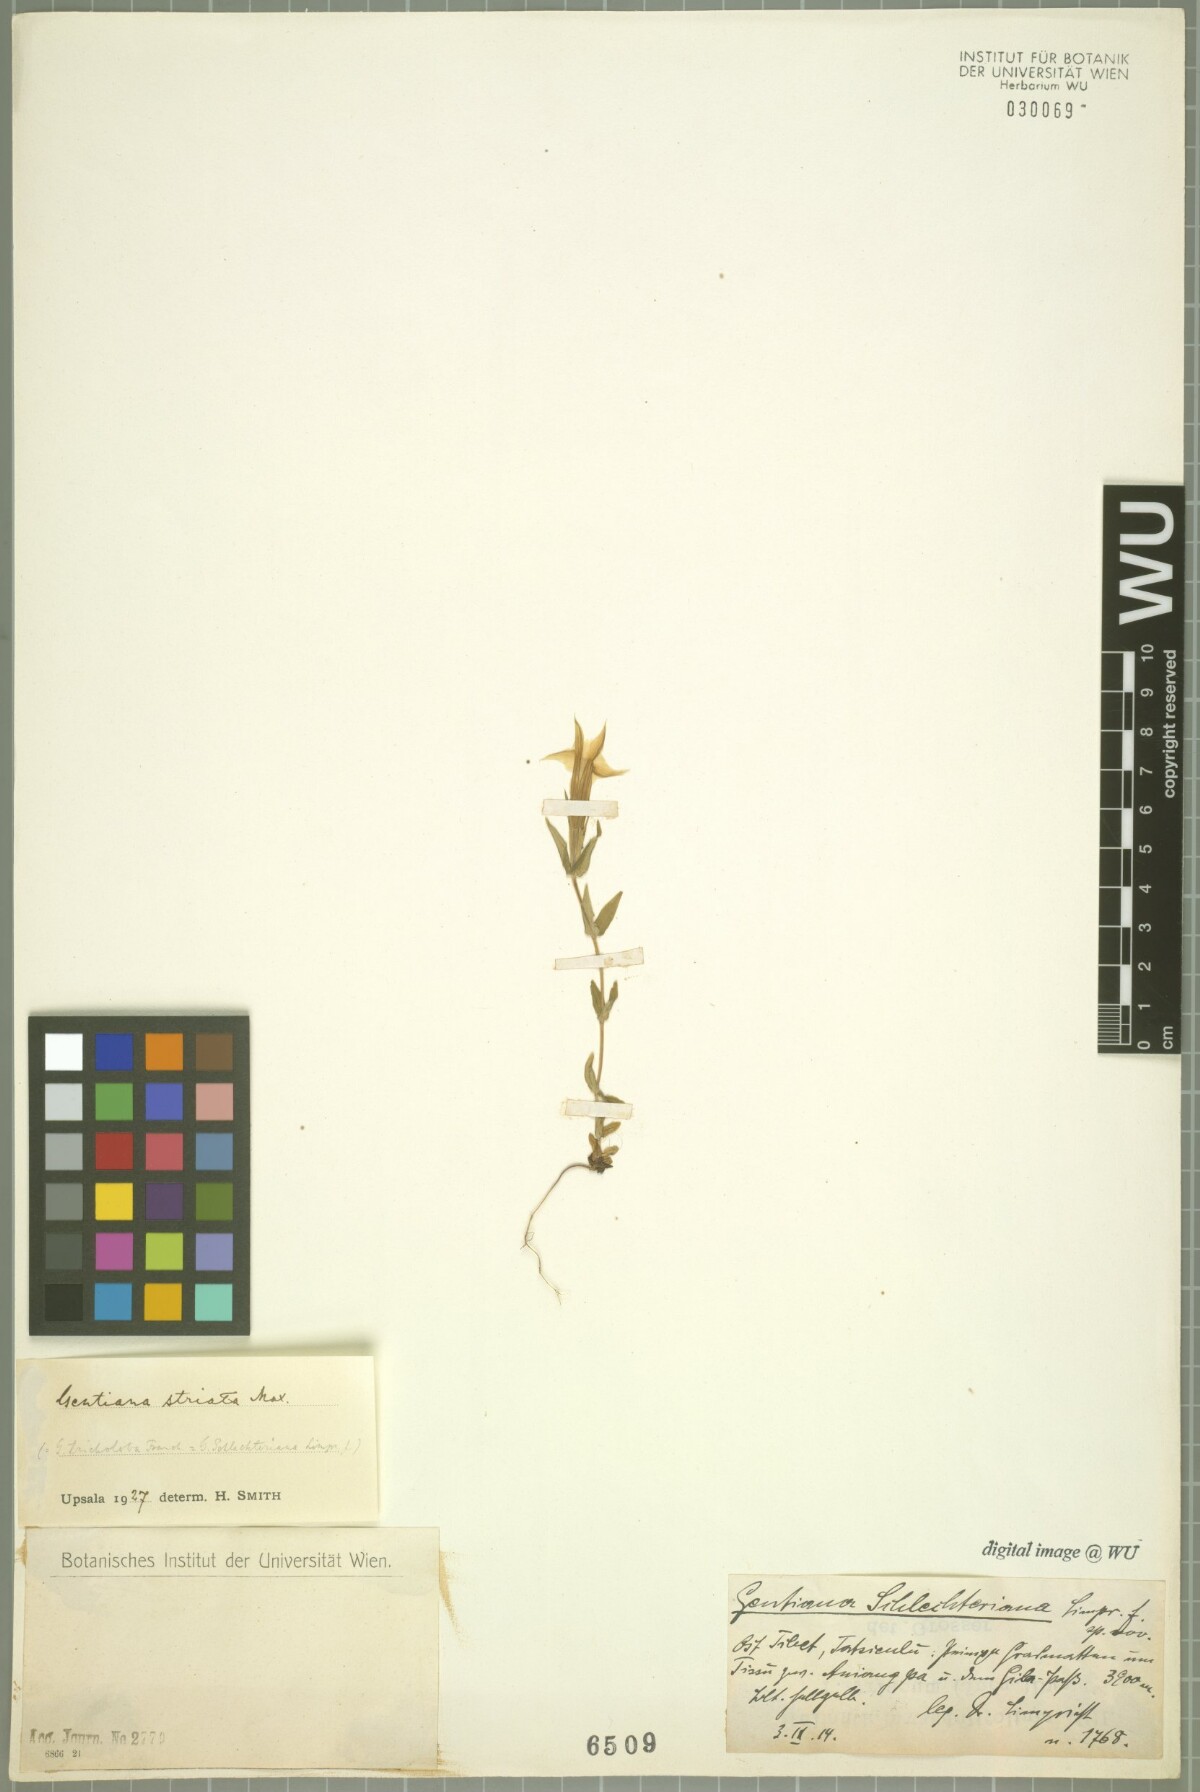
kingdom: Plantae
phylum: Tracheophyta
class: Magnoliopsida
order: Gentianales
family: Gentianaceae
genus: Sinogentiana
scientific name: Sinogentiana striata
